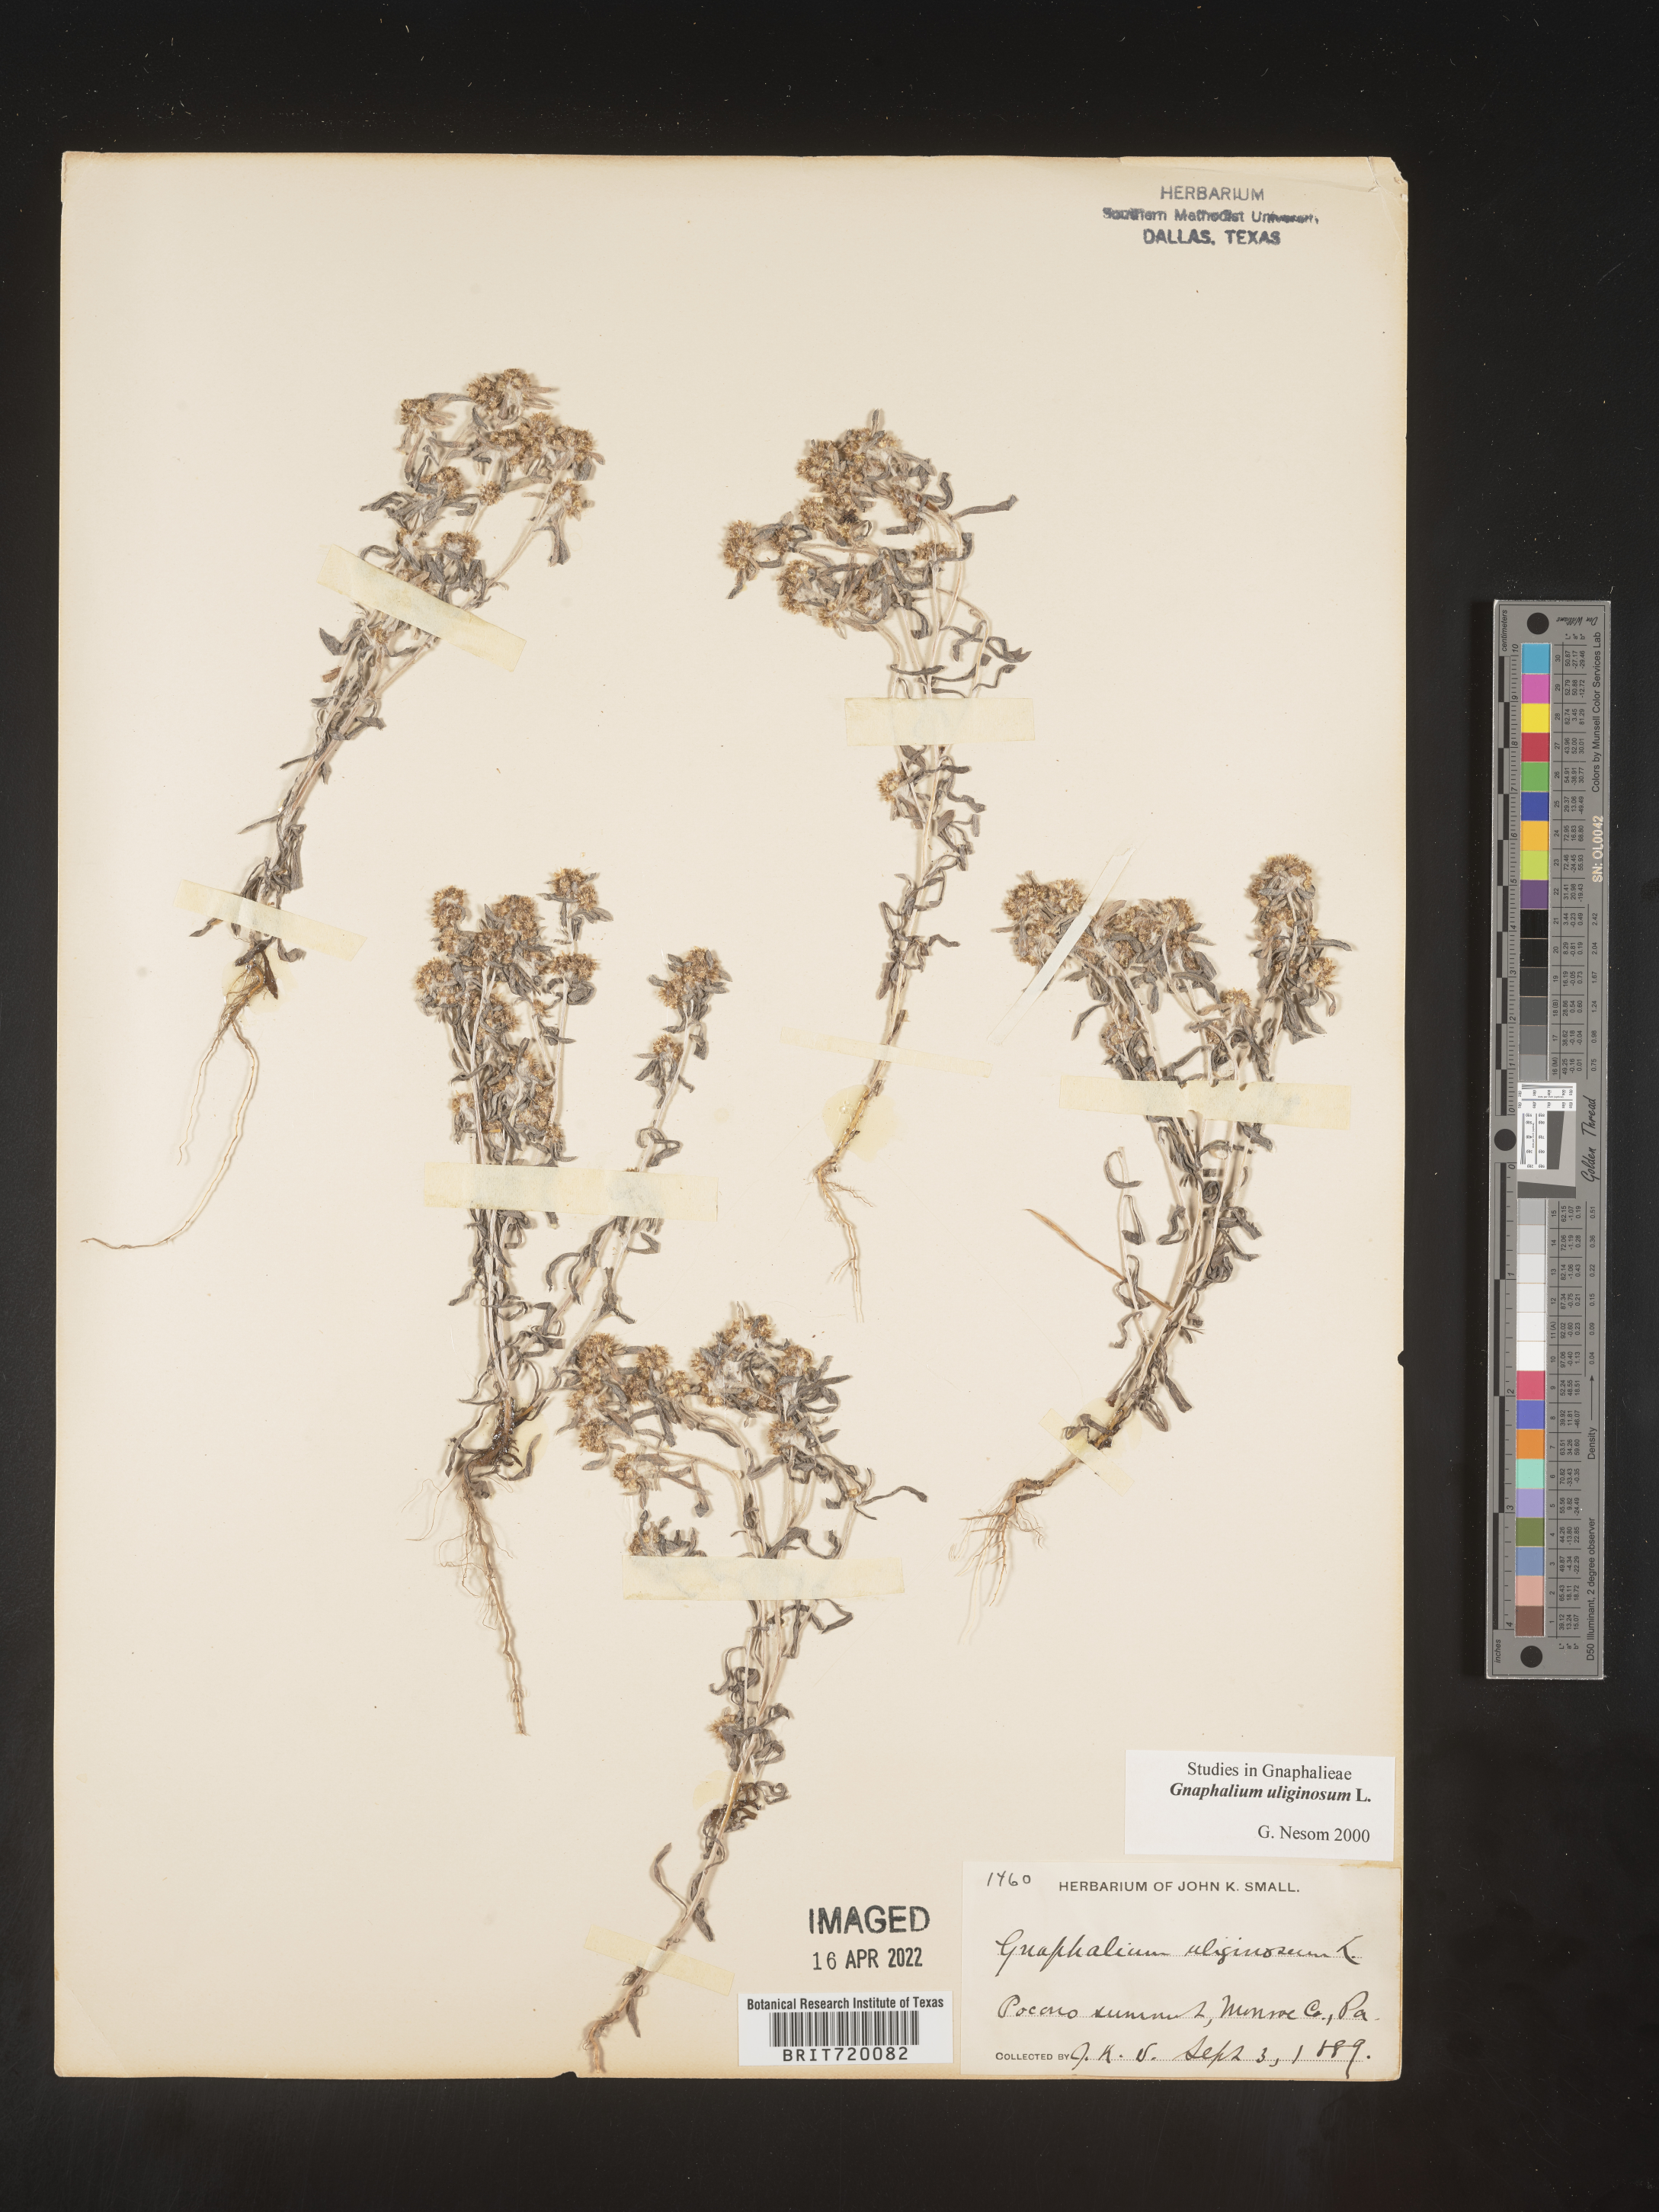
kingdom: Plantae
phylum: Tracheophyta
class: Magnoliopsida
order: Asterales
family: Asteraceae
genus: Gnaphalium
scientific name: Gnaphalium uliginosum
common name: Marsh cudweed
